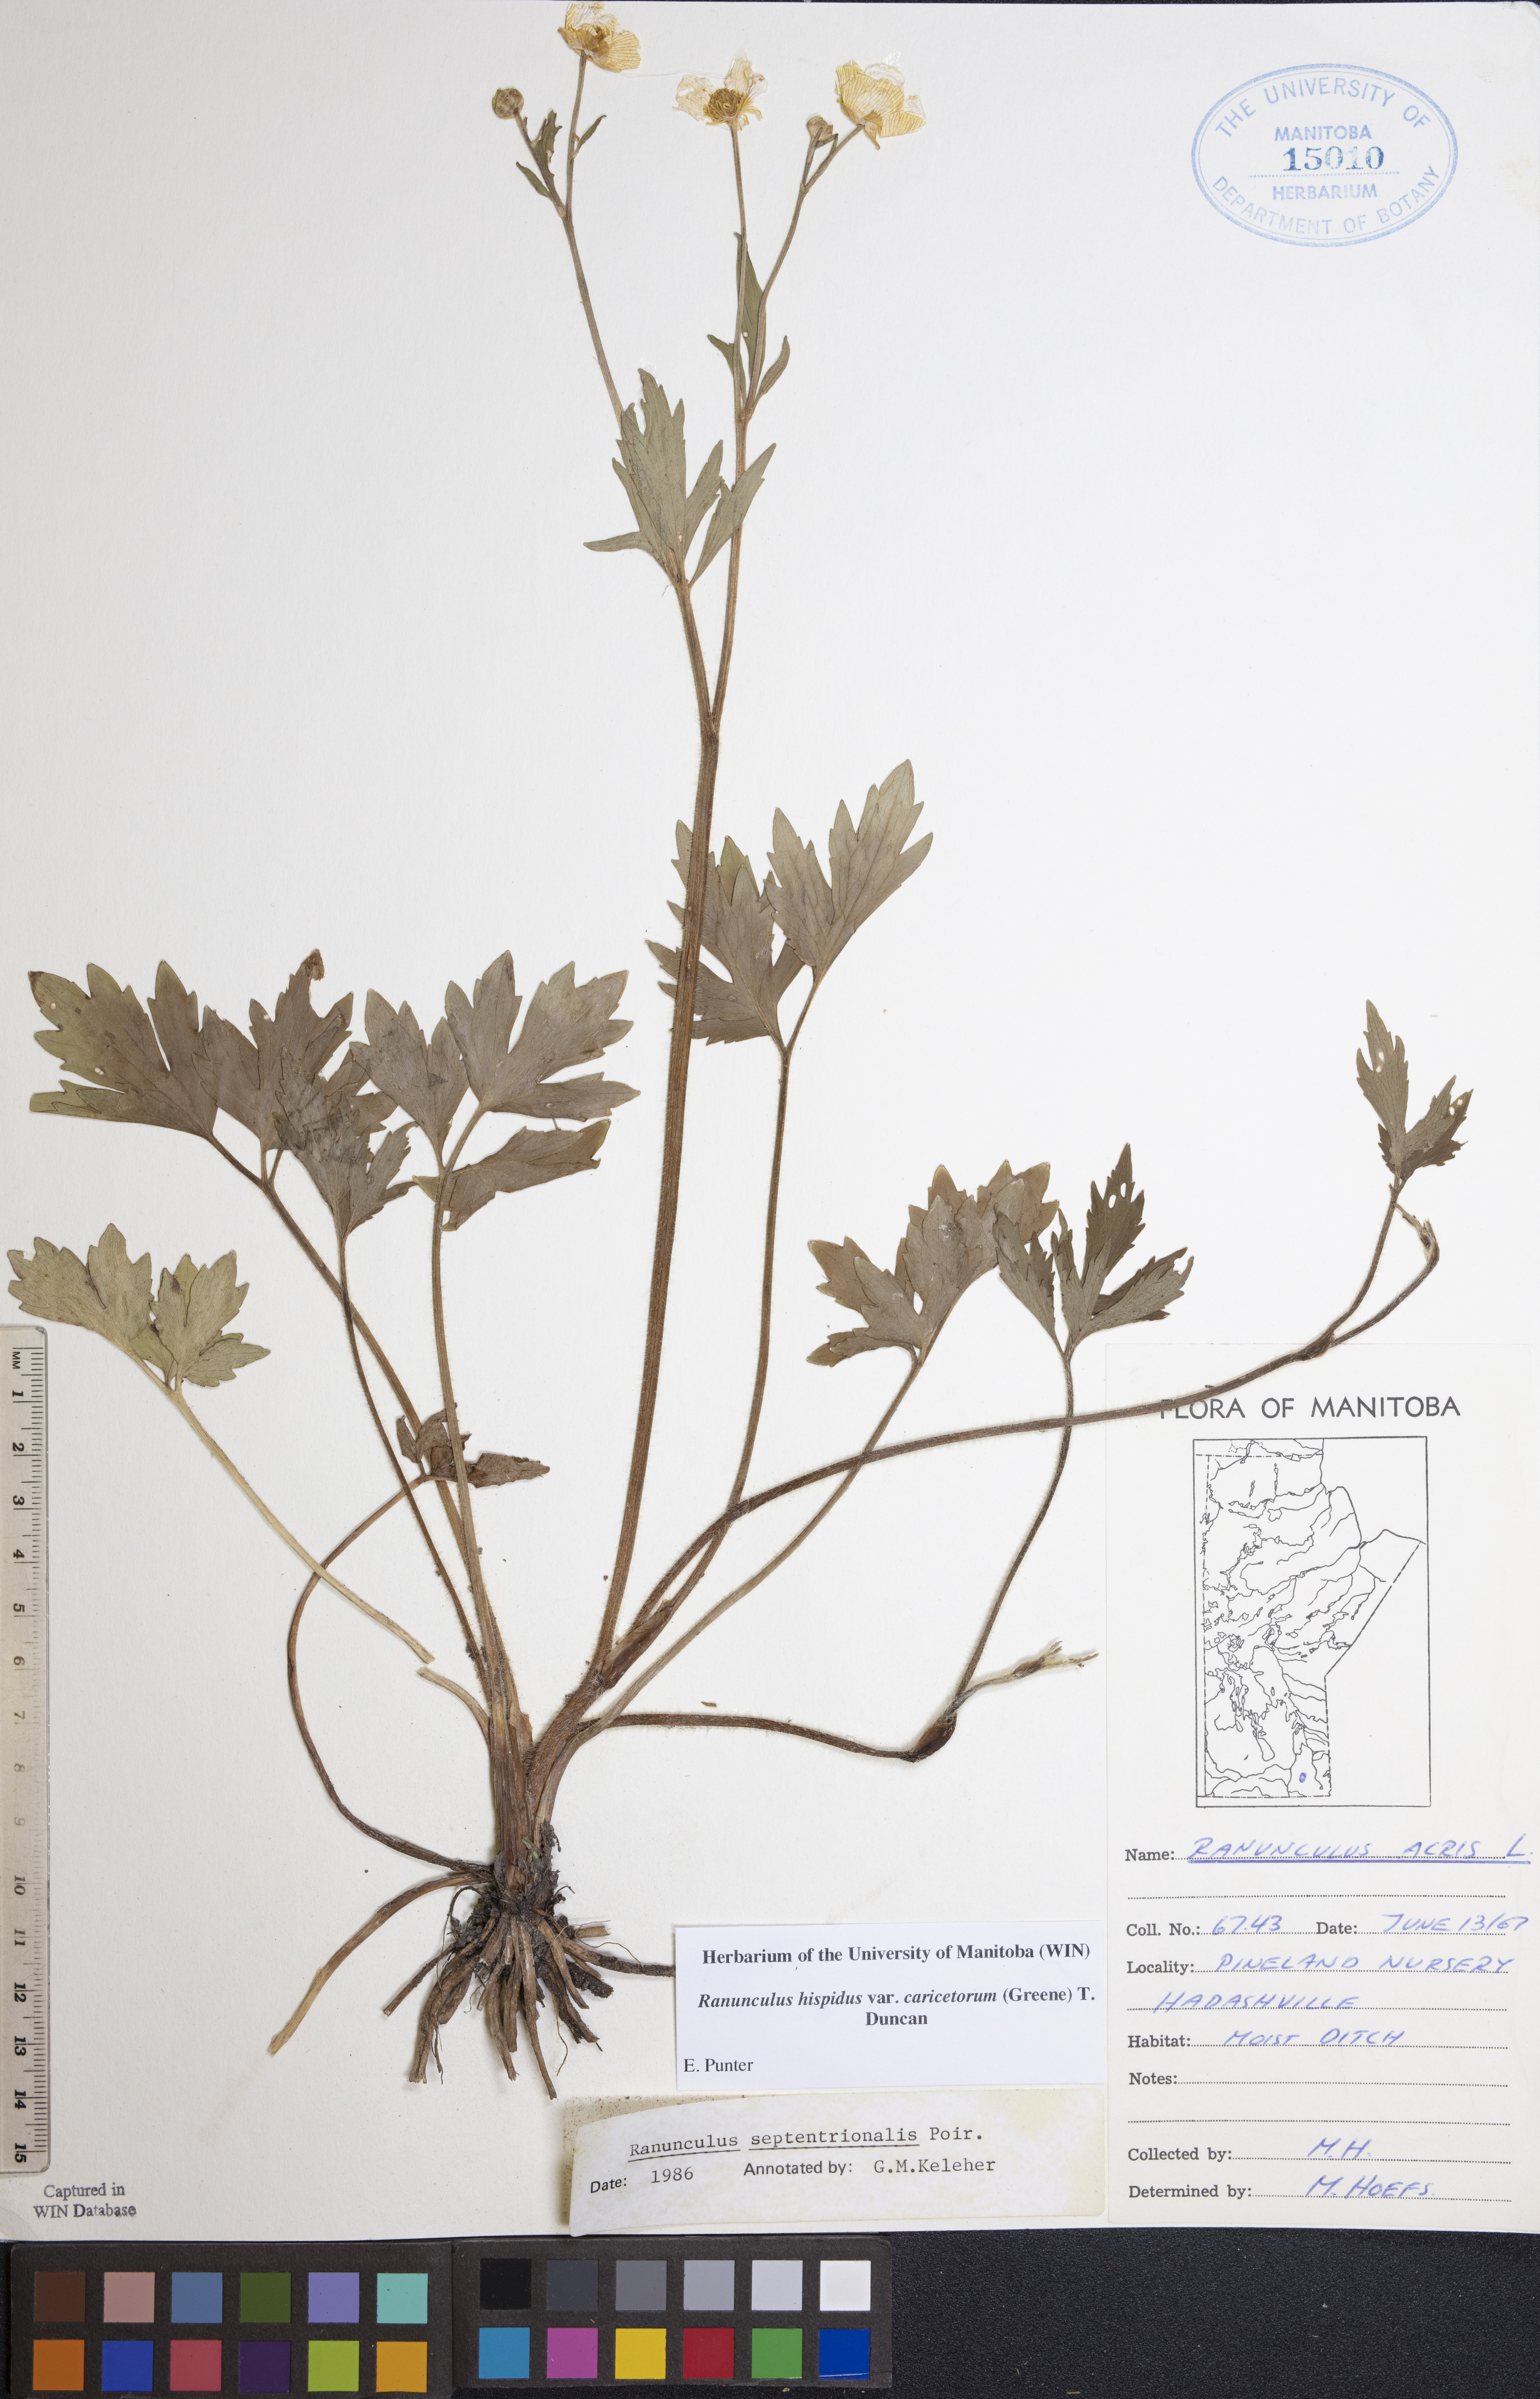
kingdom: Plantae
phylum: Tracheophyta
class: Magnoliopsida
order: Ranunculales
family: Ranunculaceae
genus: Ranunculus
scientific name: Ranunculus hispidus
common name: Bristly buttercup
